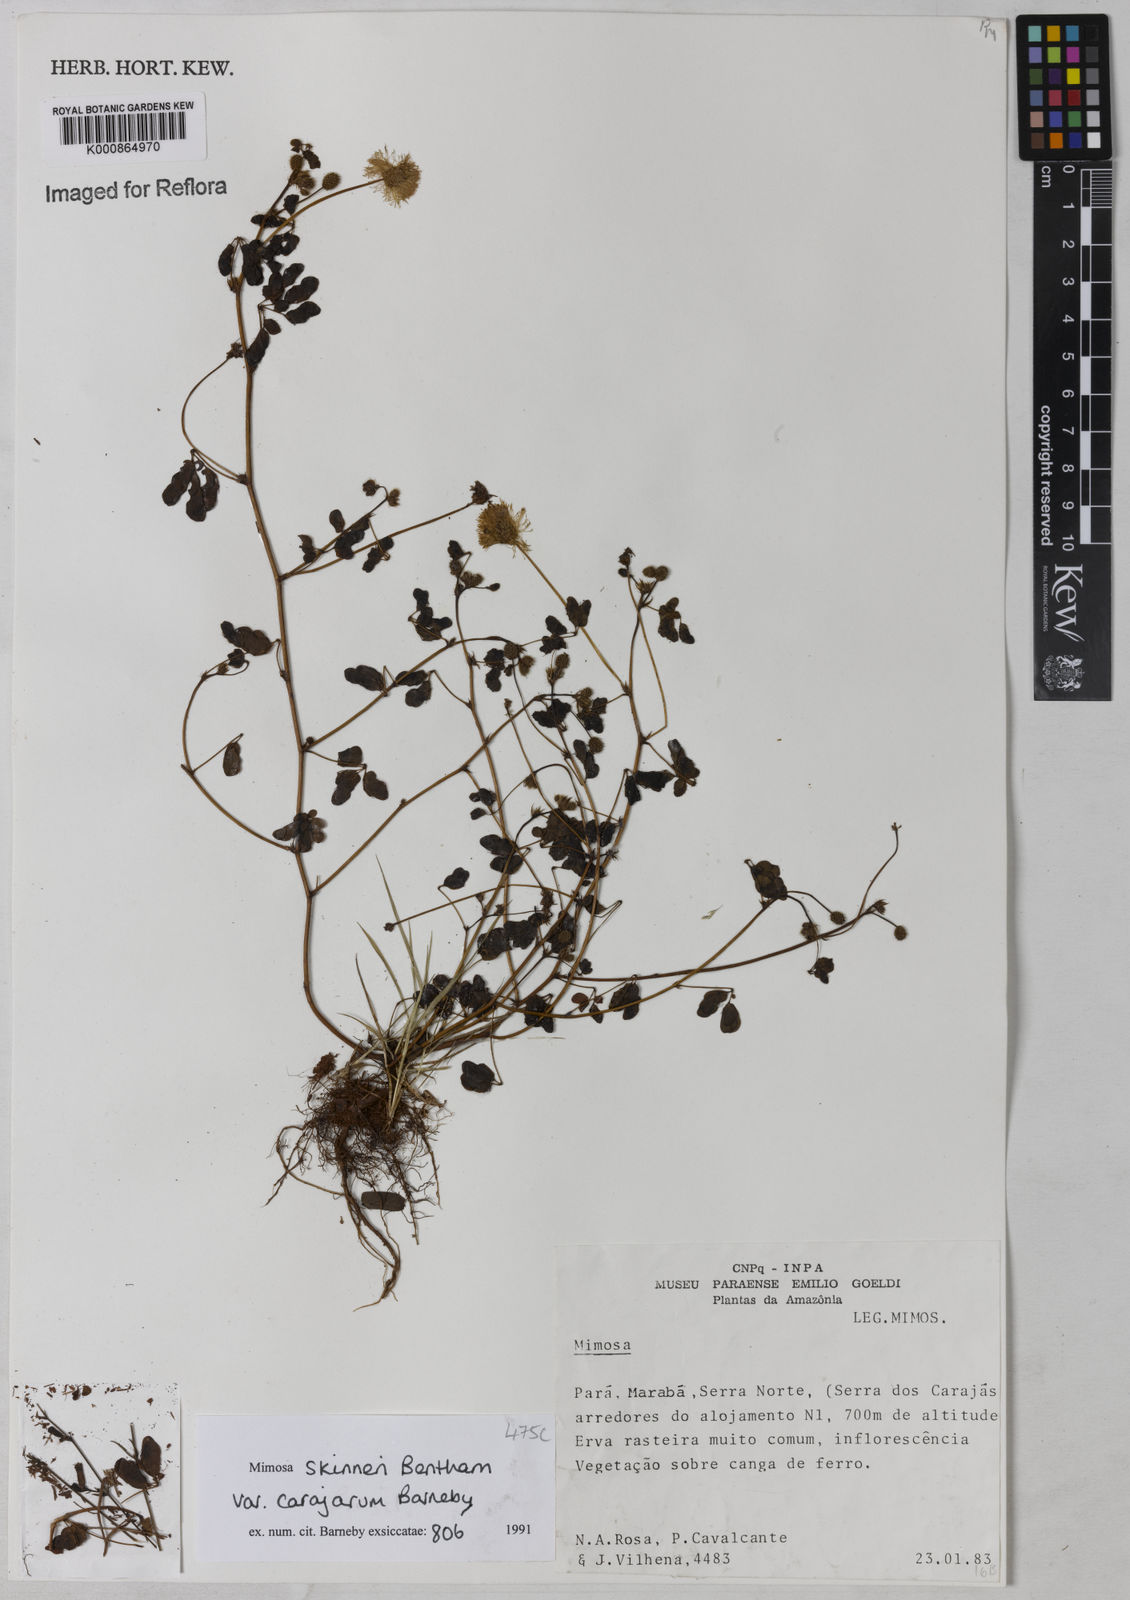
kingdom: Plantae
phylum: Tracheophyta
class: Magnoliopsida
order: Fabales
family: Fabaceae
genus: Mimosa
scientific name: Mimosa skinneri
